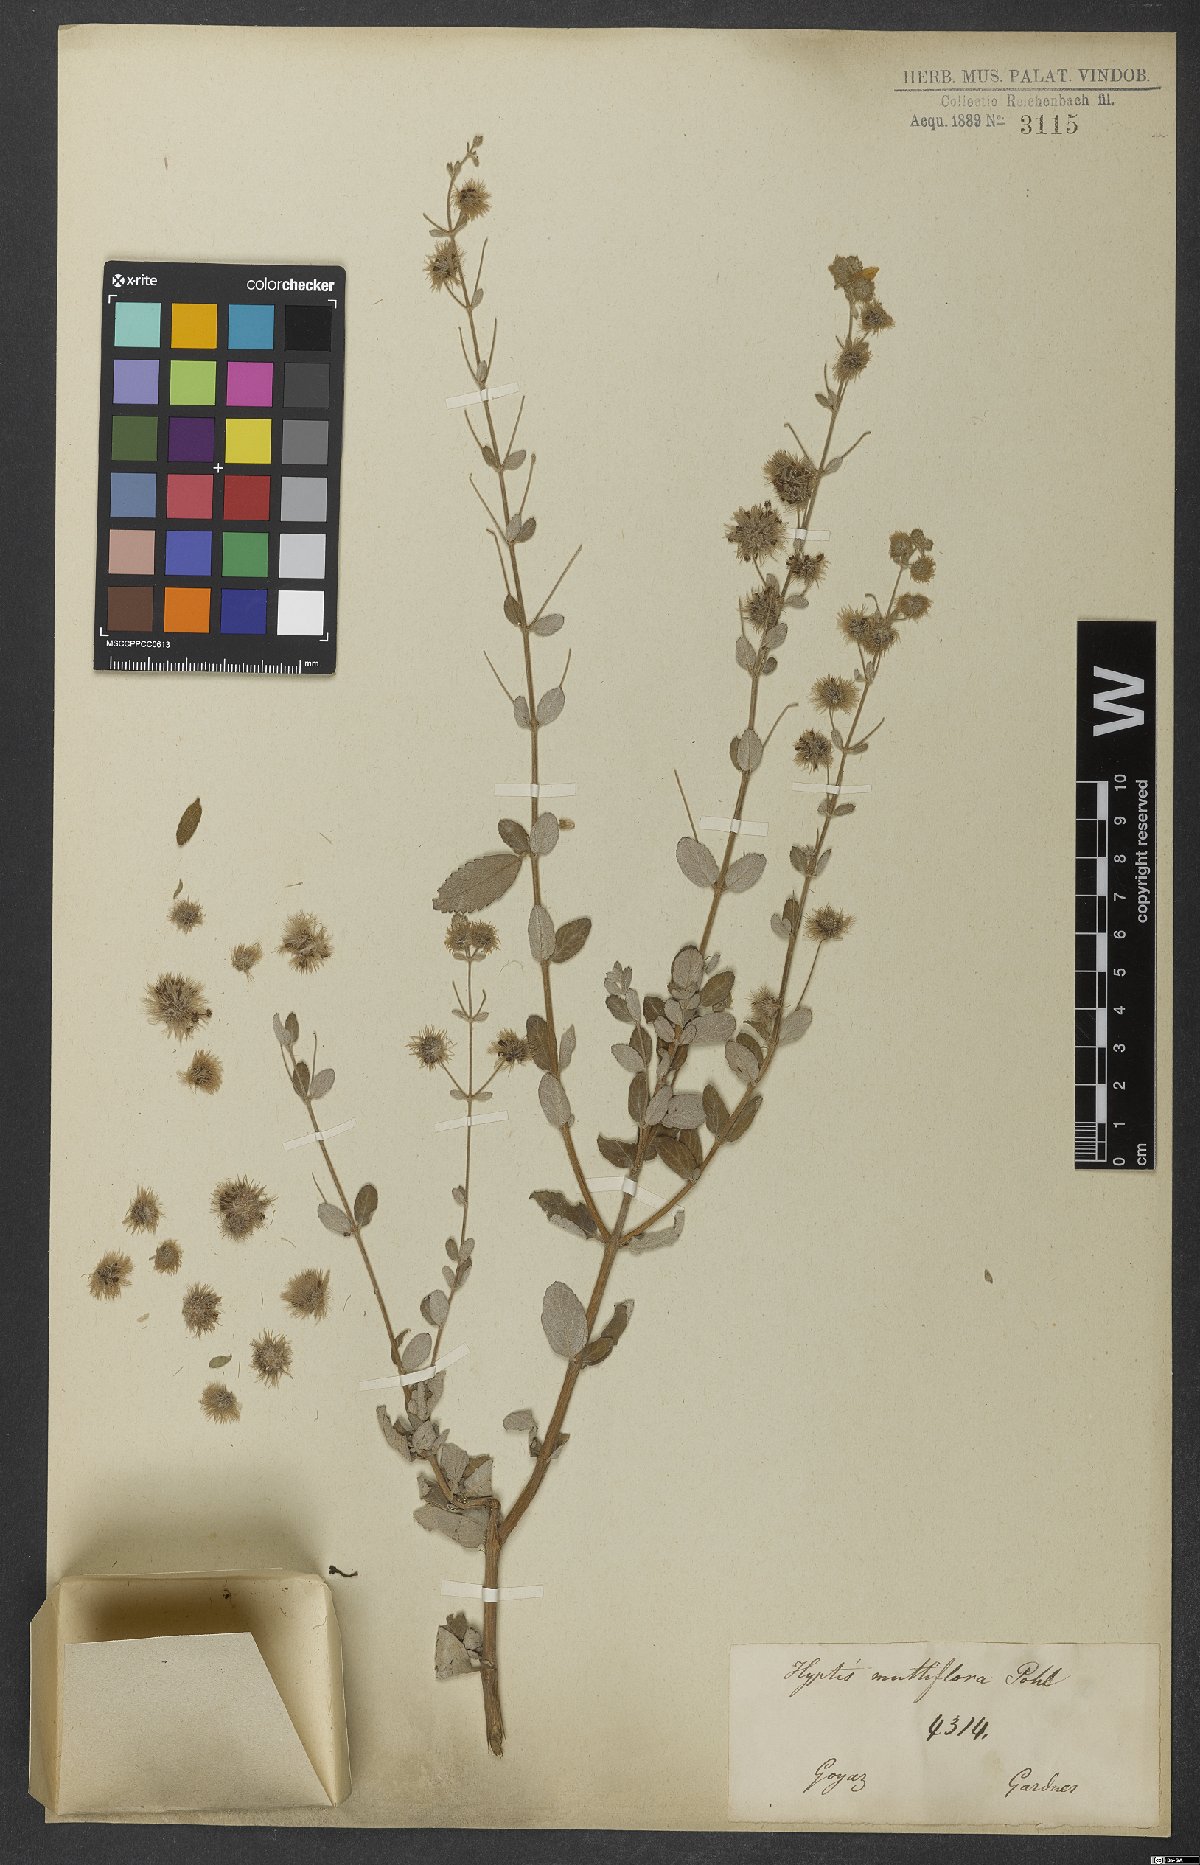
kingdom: Plantae
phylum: Tracheophyta
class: Magnoliopsida
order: Lamiales
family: Lamiaceae
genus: Medusantha
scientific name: Medusantha multiflora
